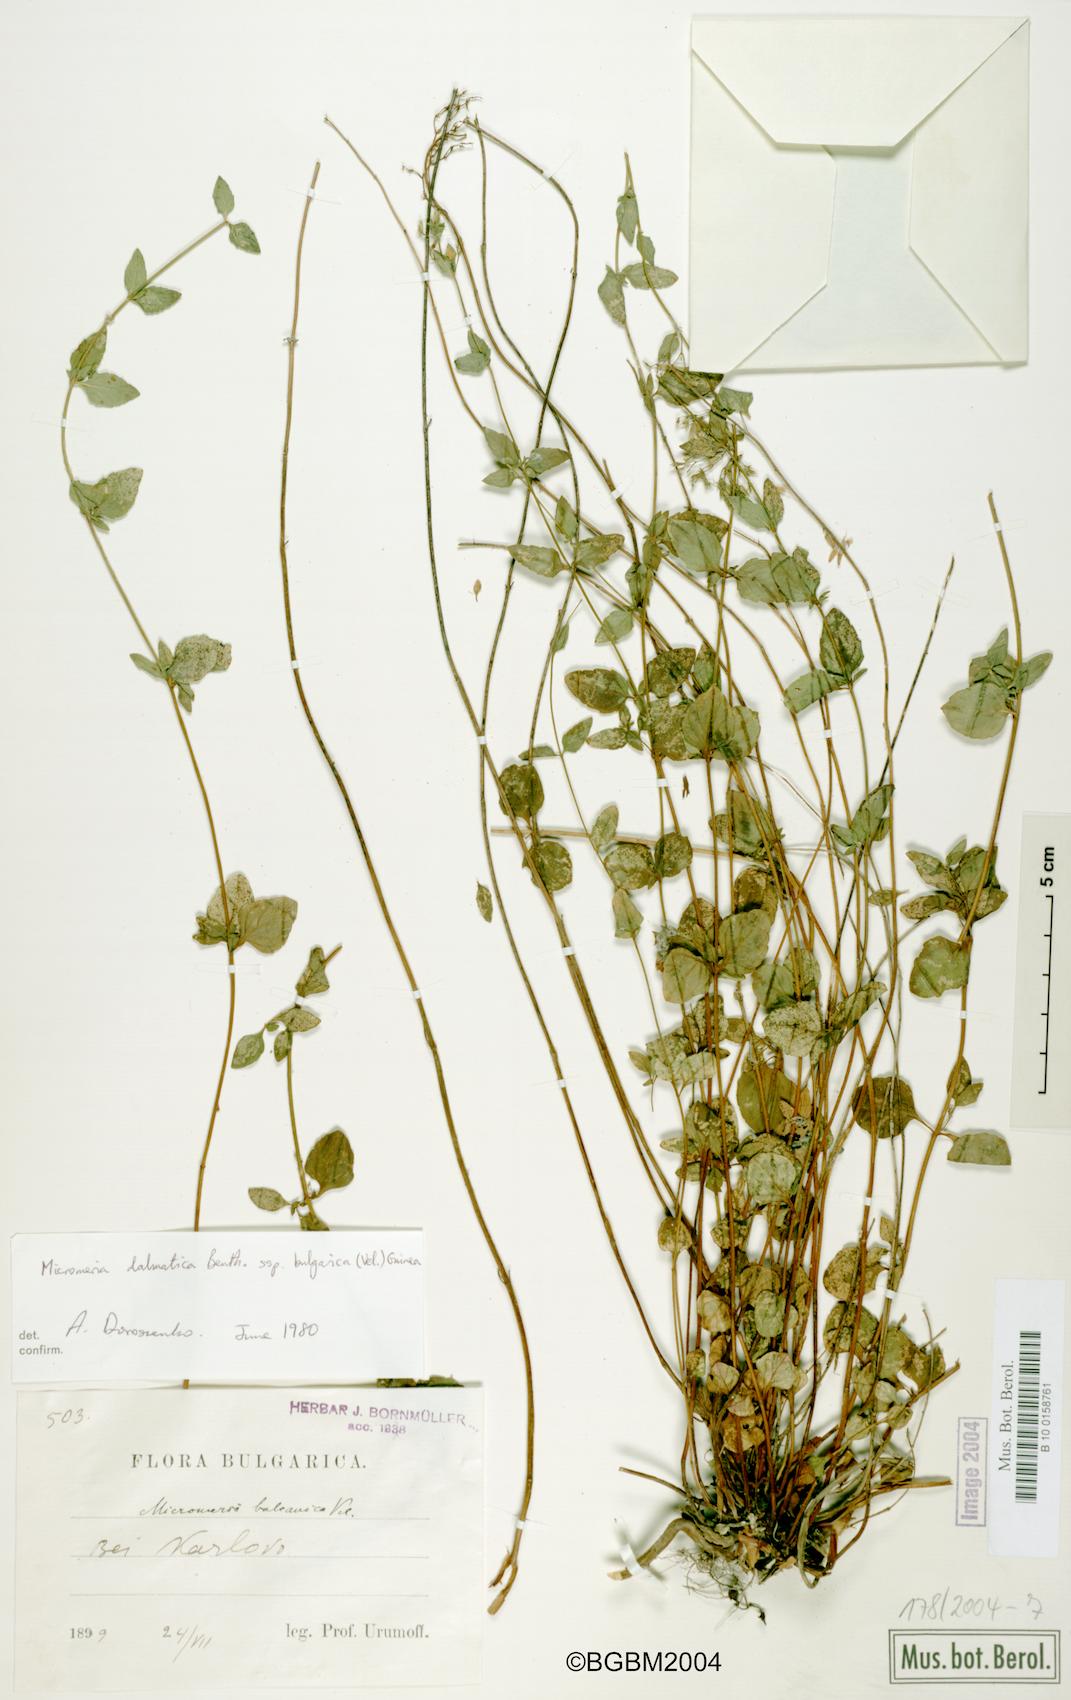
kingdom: Plantae
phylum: Tracheophyta
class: Magnoliopsida
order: Lamiales
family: Lamiaceae
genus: Clinopodium
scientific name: Clinopodium frivaldszkyanum
